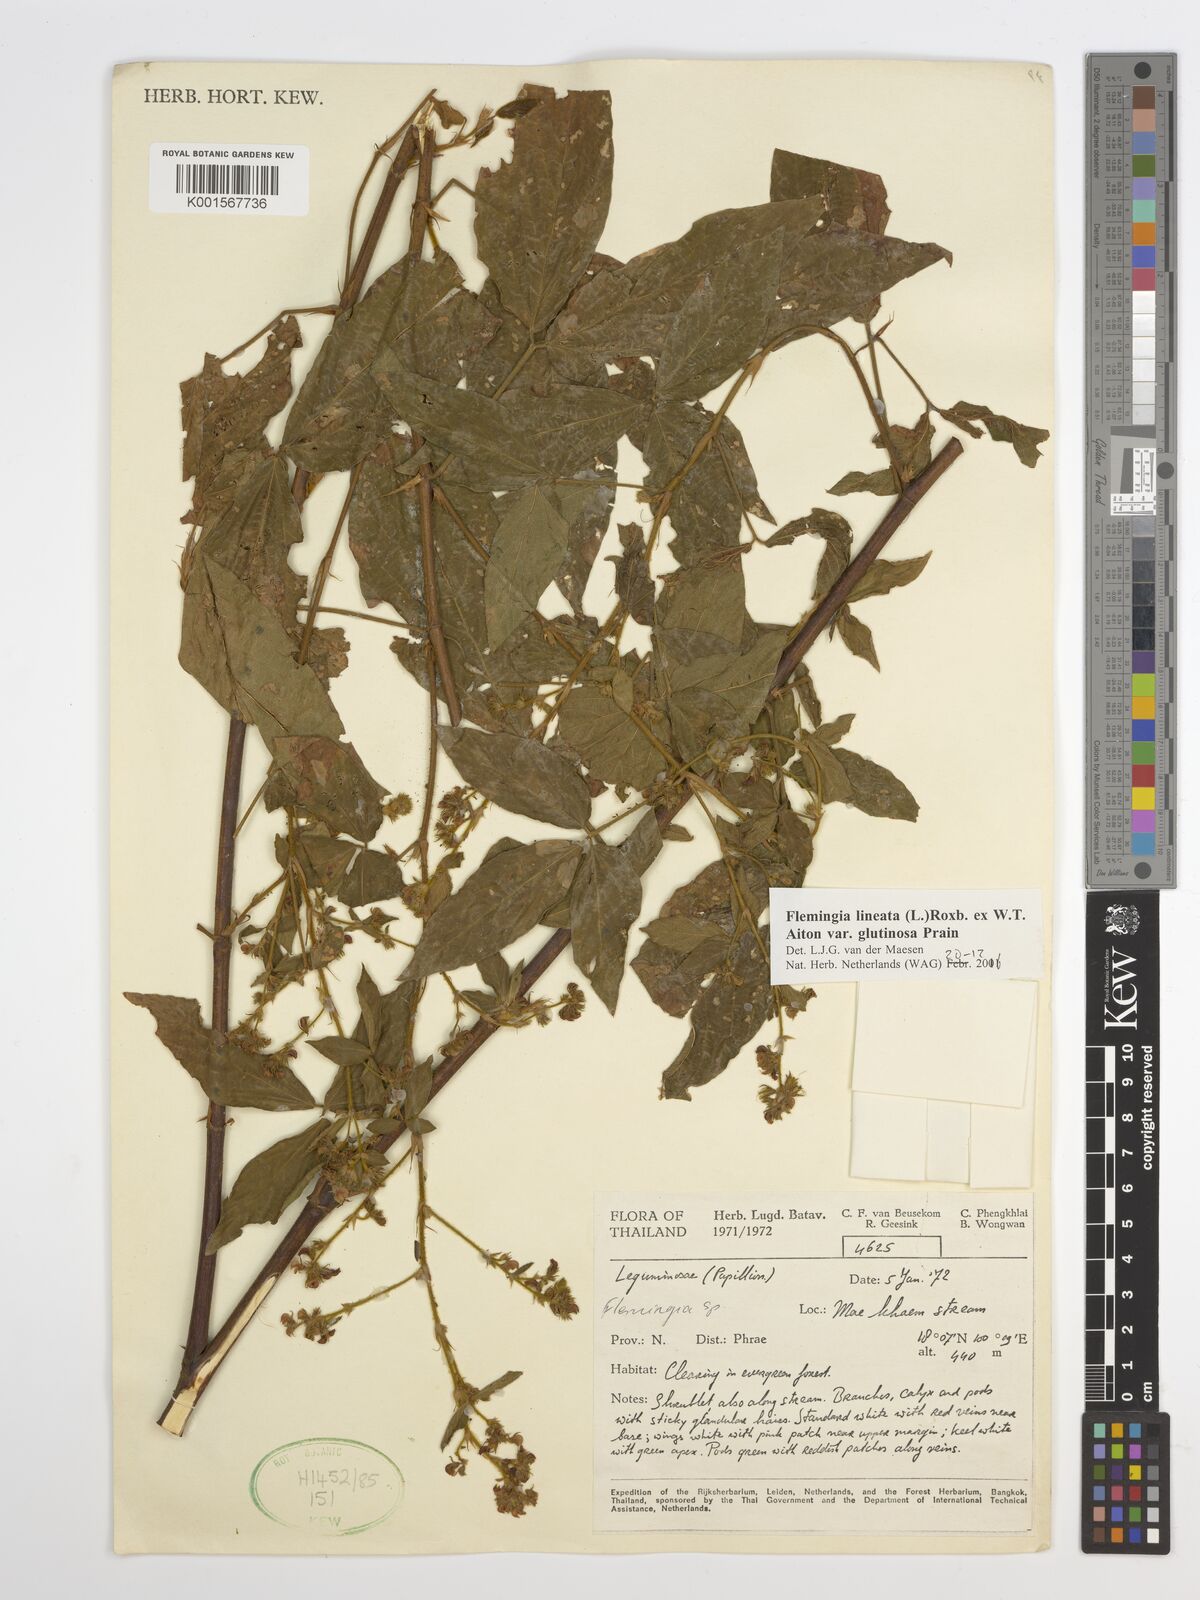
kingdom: Plantae
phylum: Tracheophyta
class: Magnoliopsida
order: Fabales
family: Fabaceae
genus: Flemingia
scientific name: Flemingia lineata
